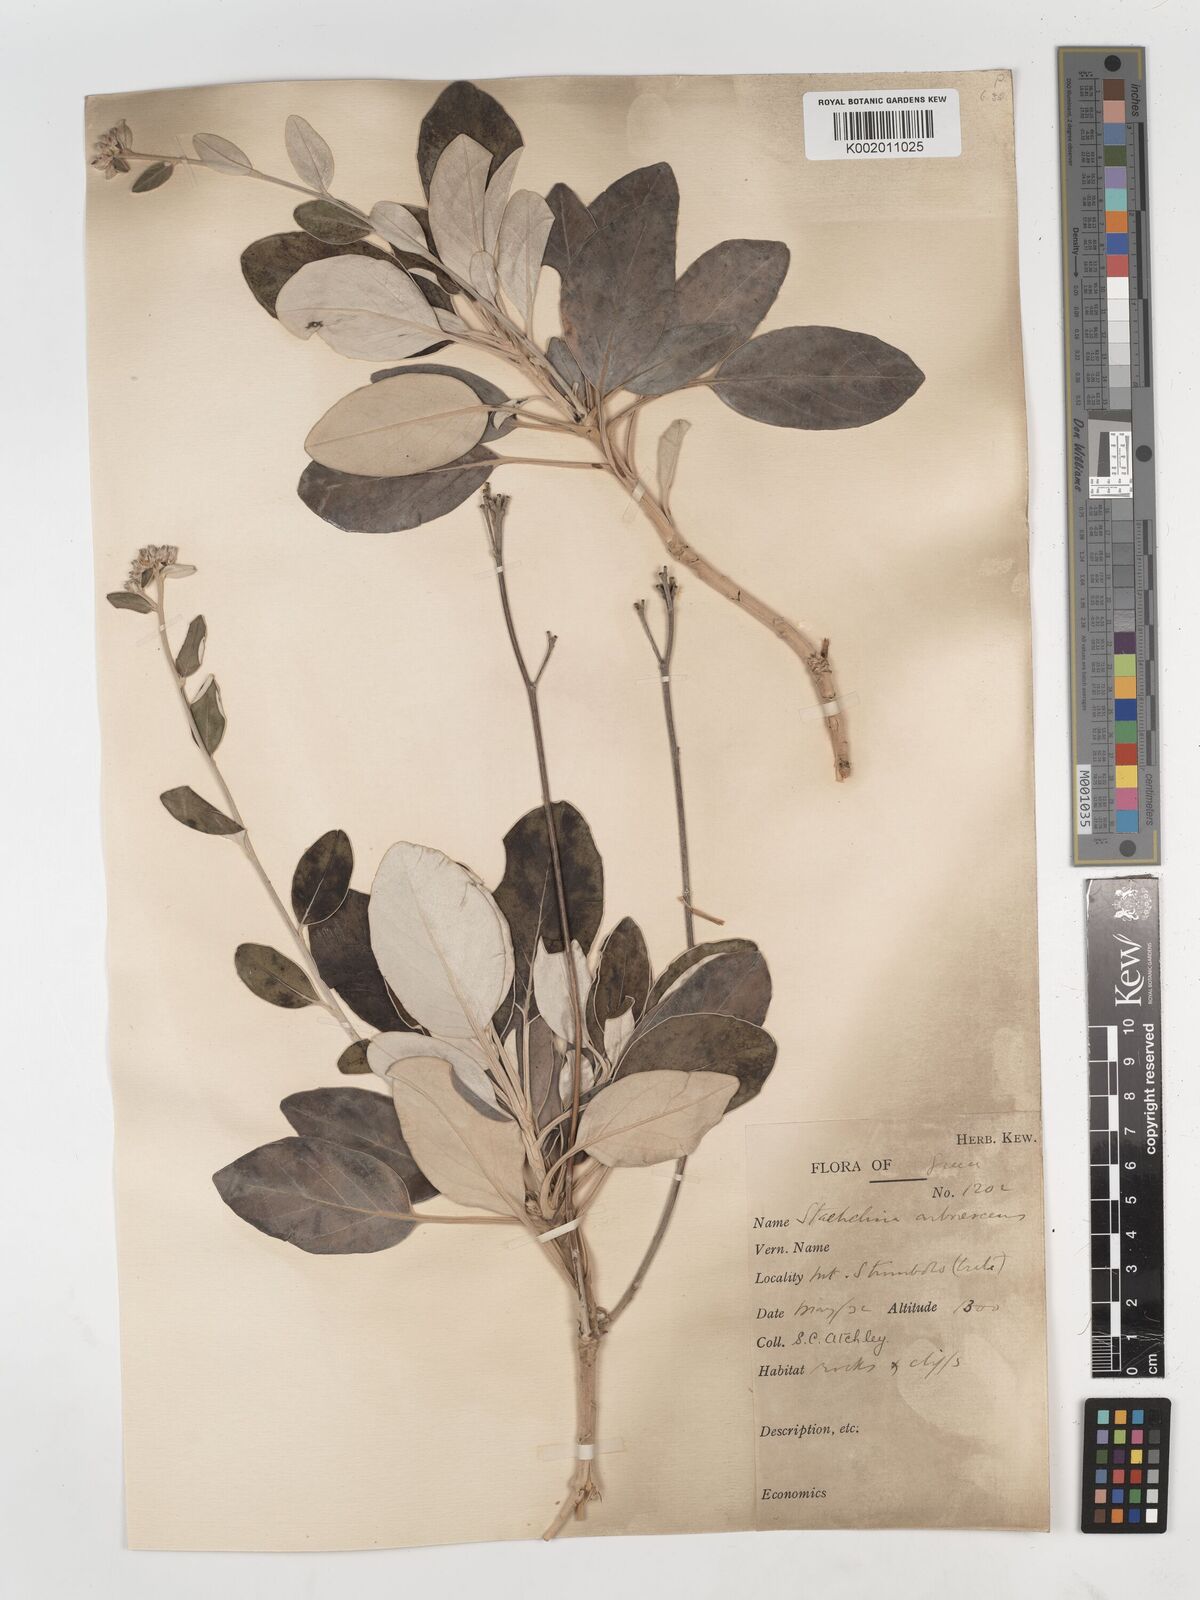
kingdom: Plantae
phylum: Tracheophyta
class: Magnoliopsida
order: Asterales
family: Asteraceae
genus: Staehelina
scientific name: Staehelina petiolata
